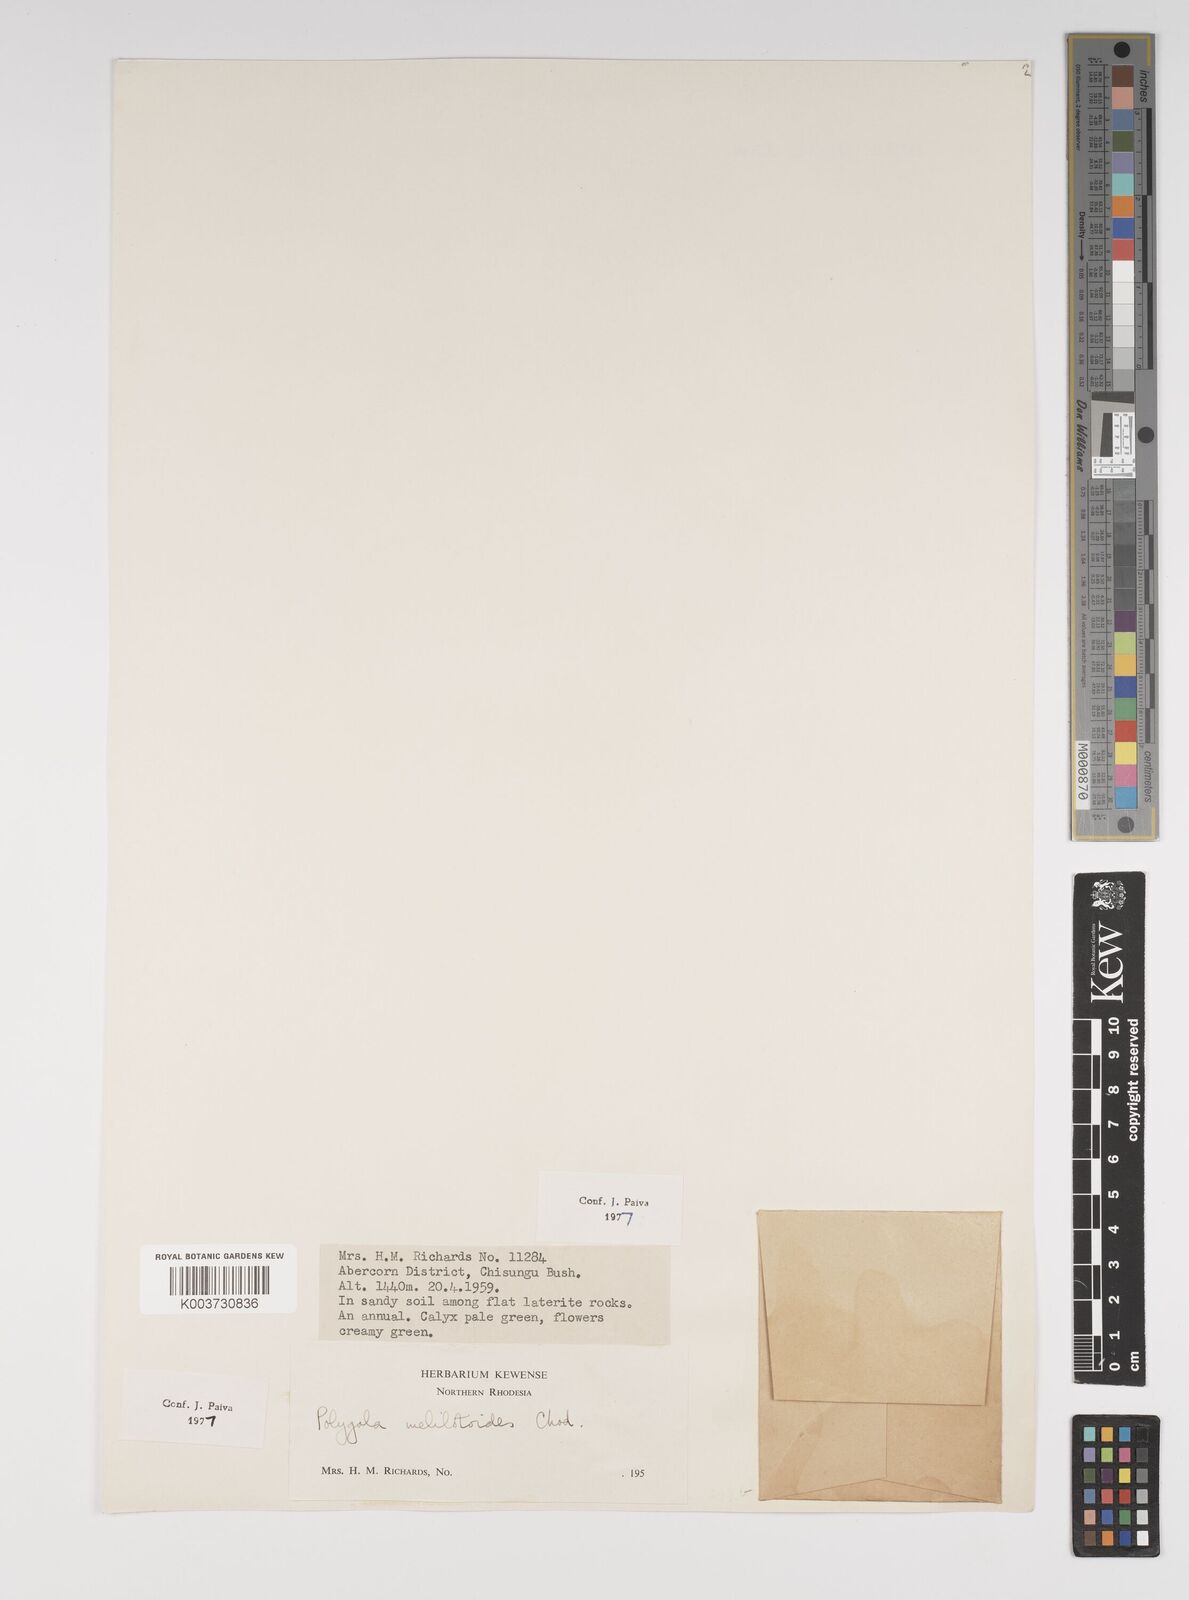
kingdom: Plantae
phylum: Tracheophyta
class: Magnoliopsida
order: Fabales
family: Polygalaceae
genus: Polygala
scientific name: Polygala melilotoides
